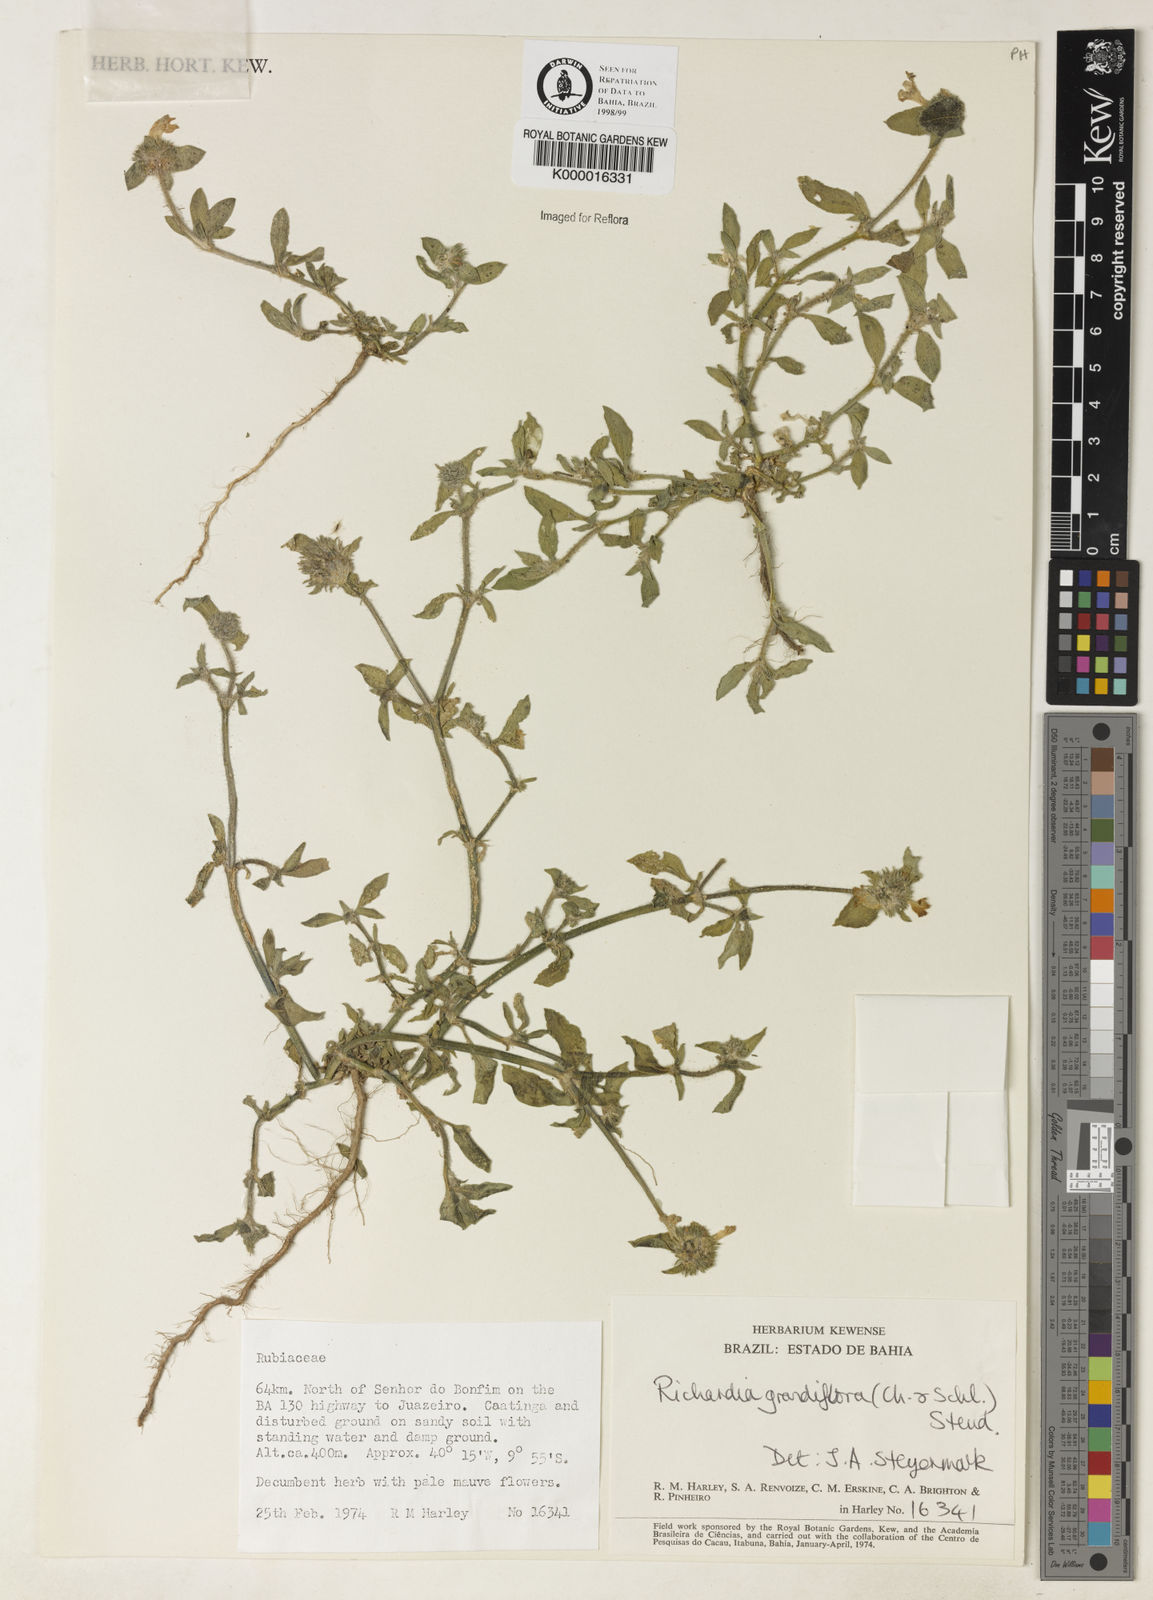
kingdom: Plantae
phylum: Tracheophyta
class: Magnoliopsida
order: Gentianales
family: Rubiaceae
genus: Richardia
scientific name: Richardia grandiflora
